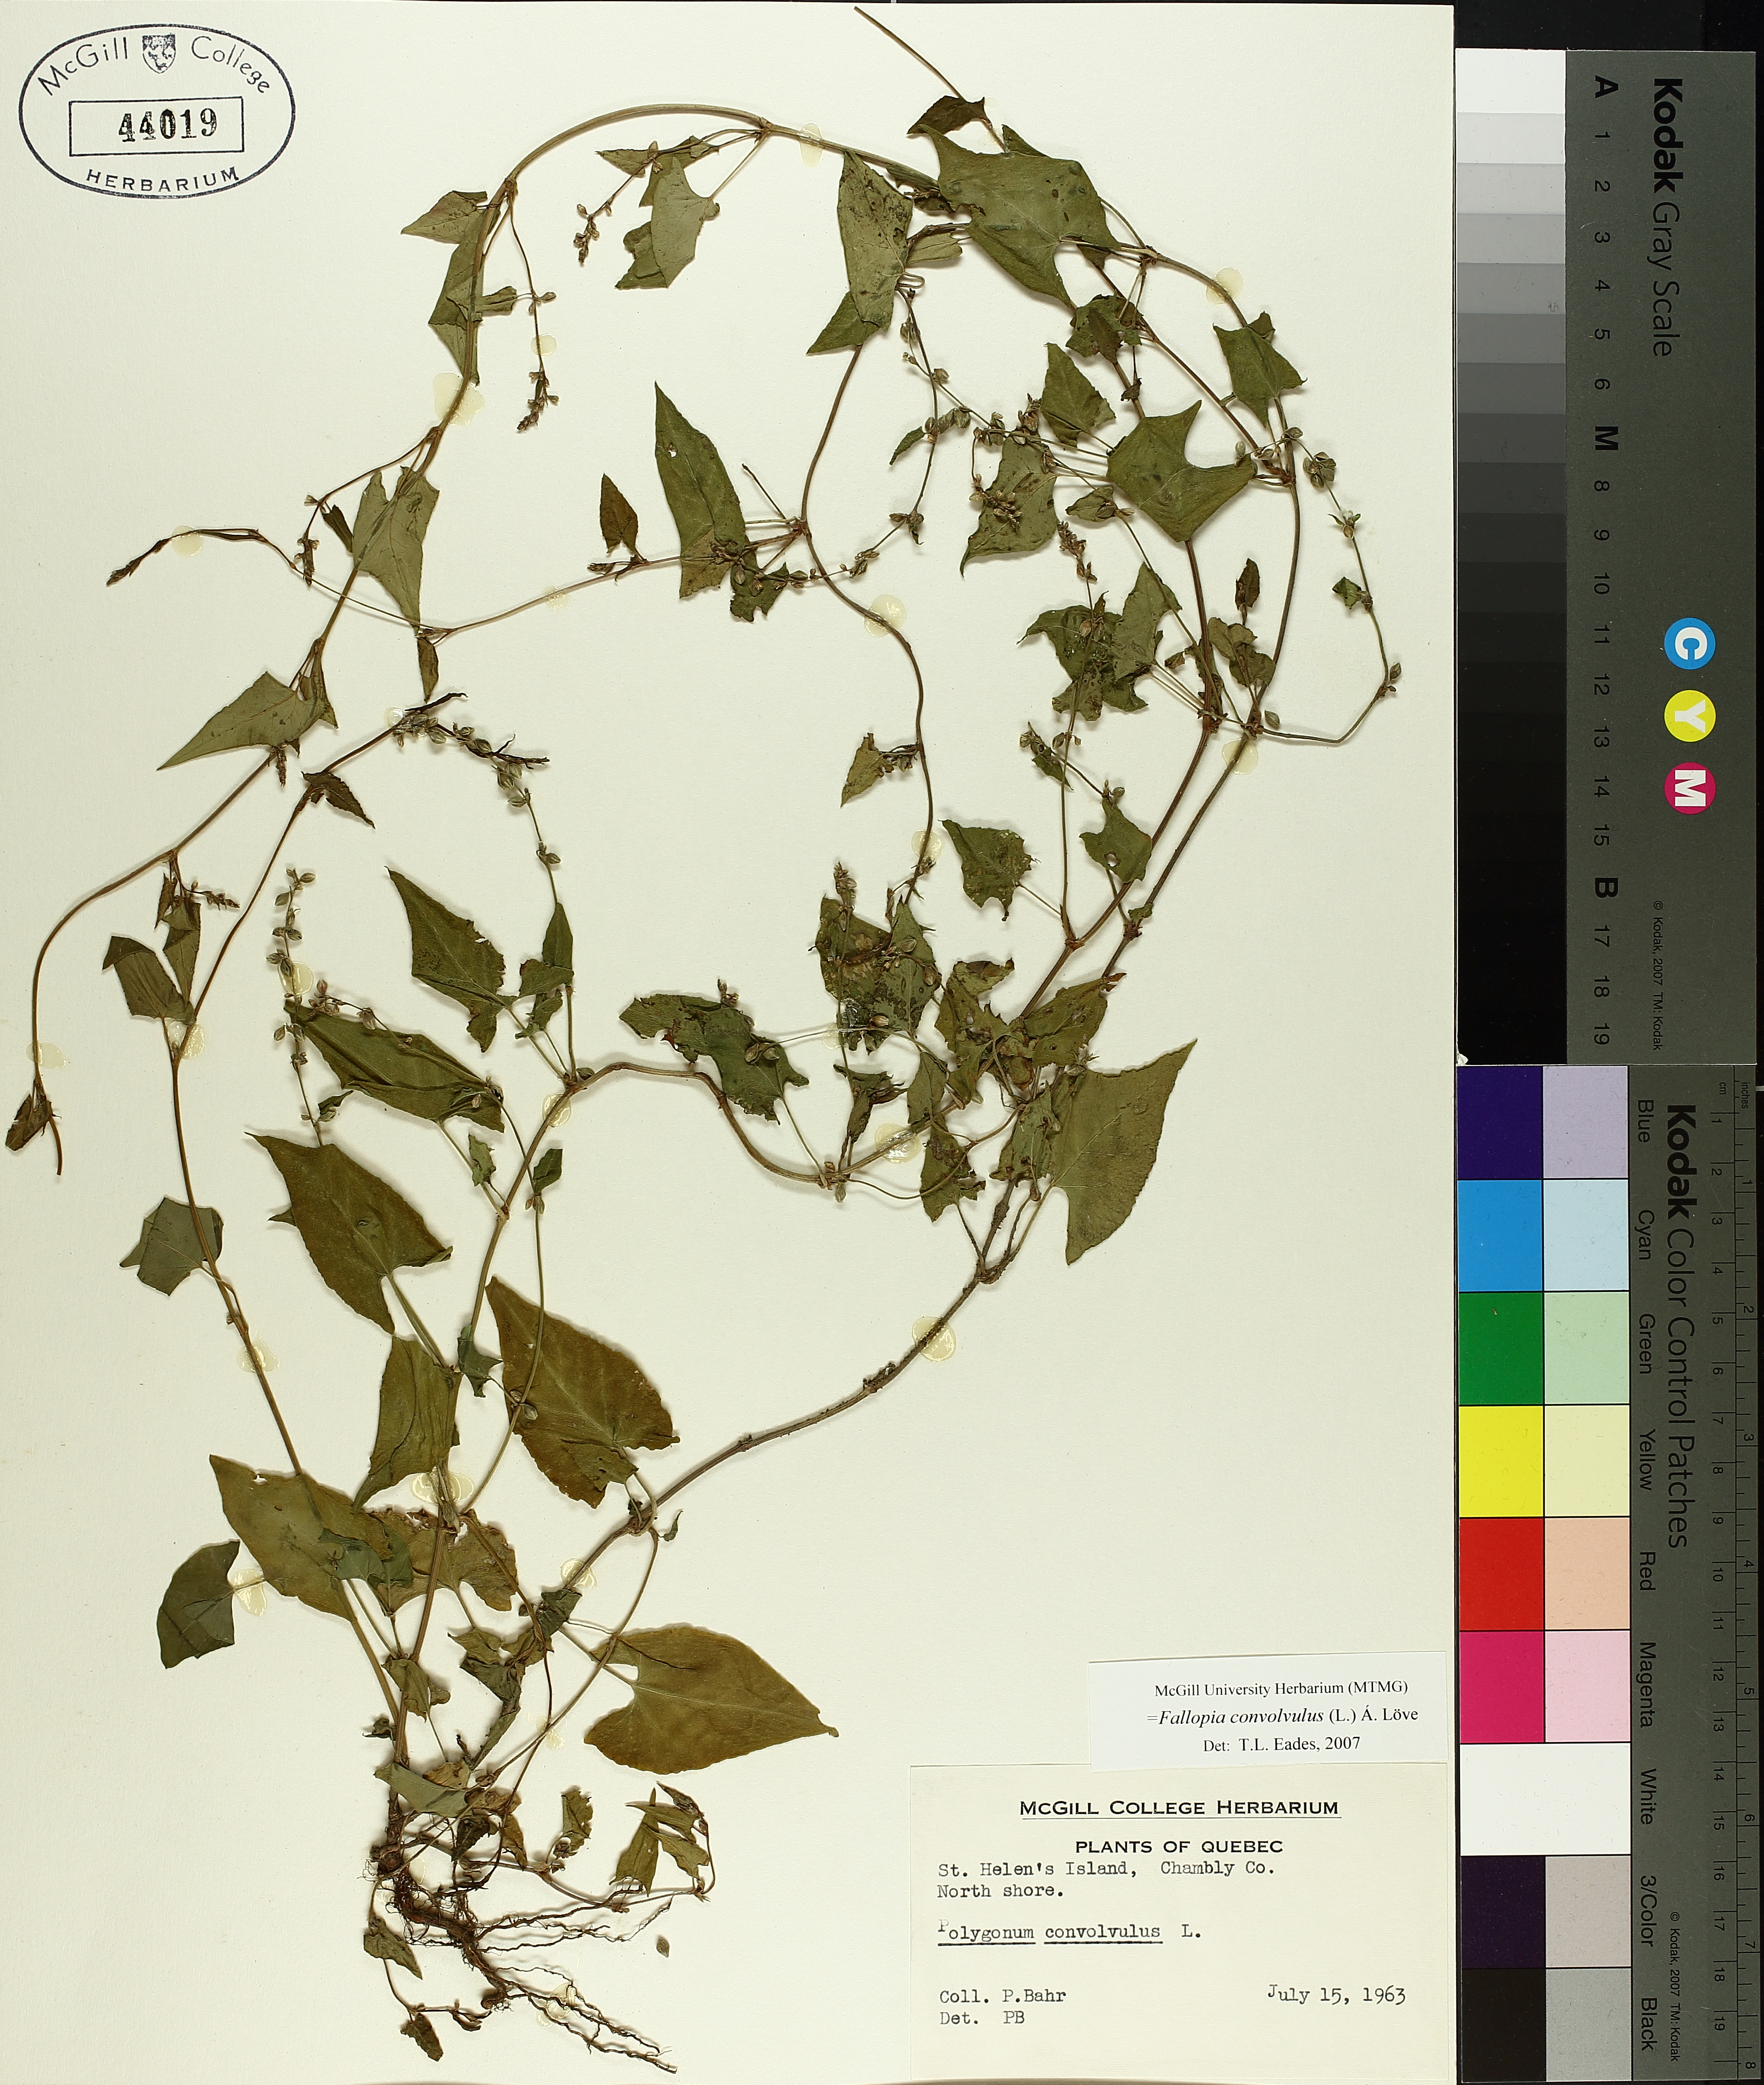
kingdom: Plantae
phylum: Tracheophyta
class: Magnoliopsida
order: Caryophyllales
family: Polygonaceae
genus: Fallopia
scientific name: Fallopia convolvulus
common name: Black bindweed
